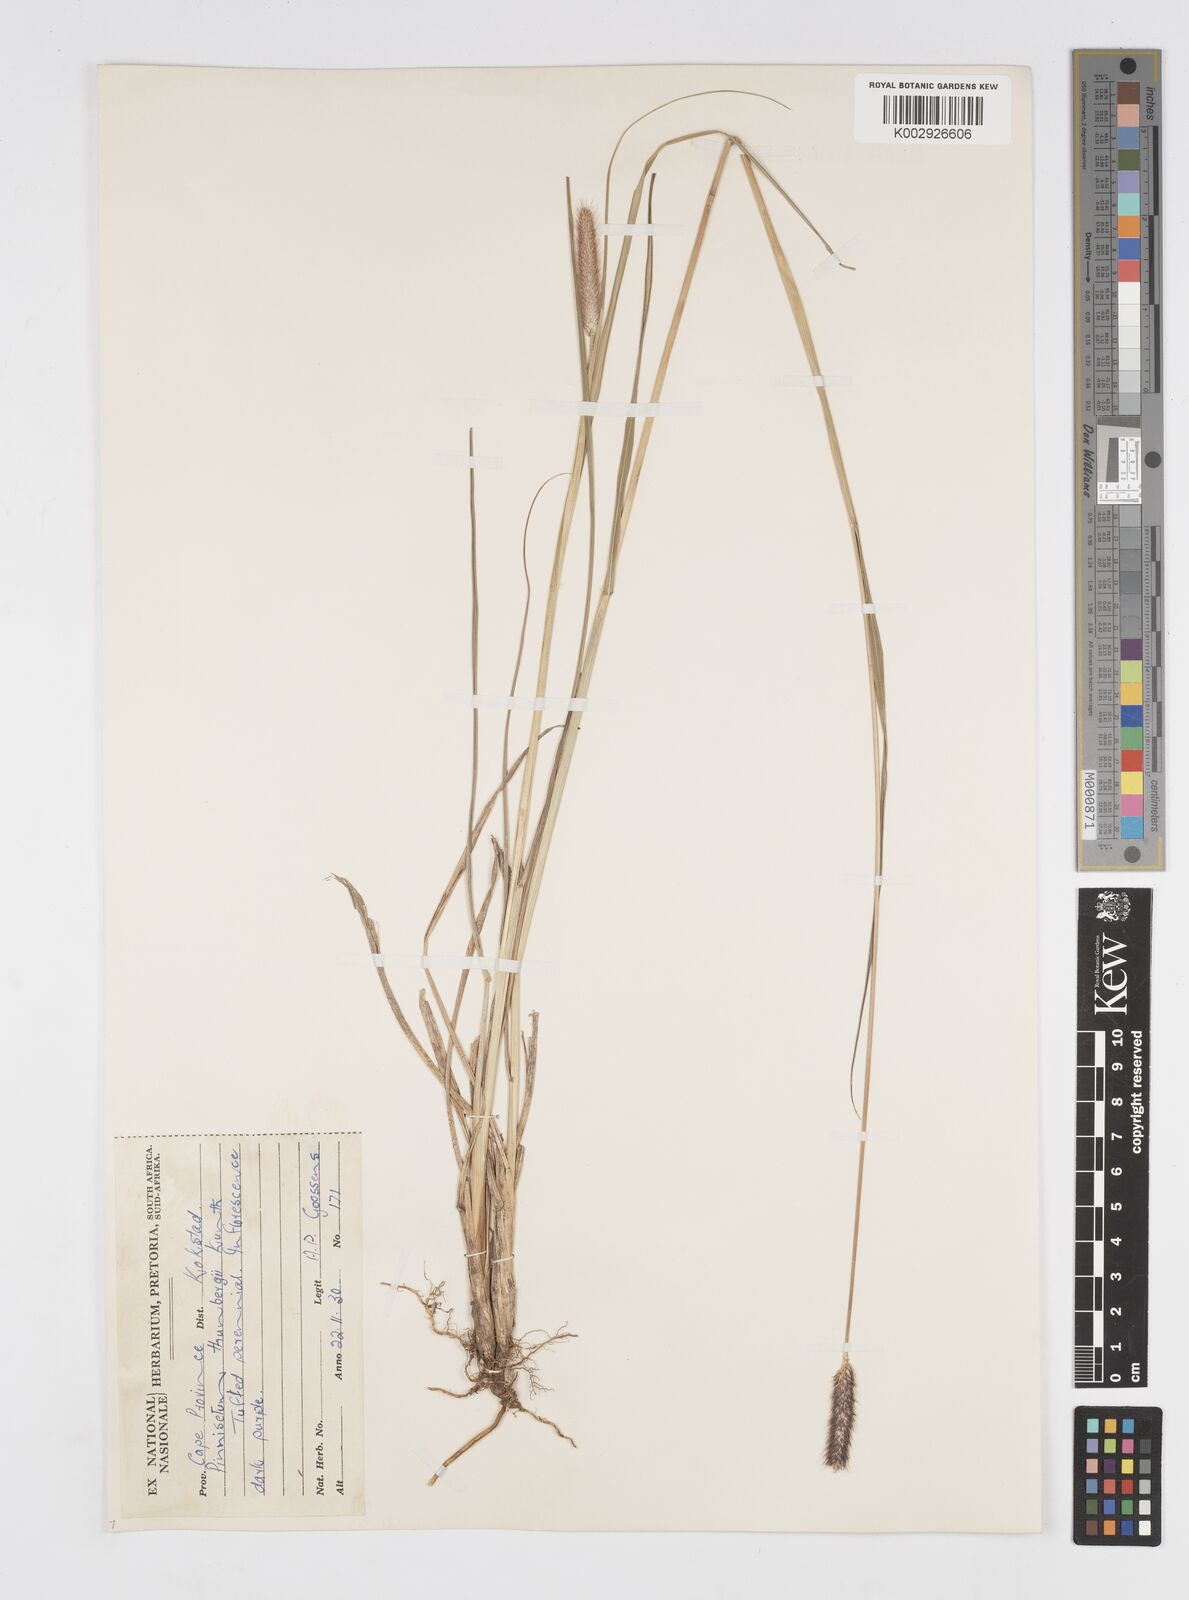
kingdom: Plantae
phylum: Tracheophyta
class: Liliopsida
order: Poales
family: Poaceae
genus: Cenchrus
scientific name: Cenchrus geniculatus
